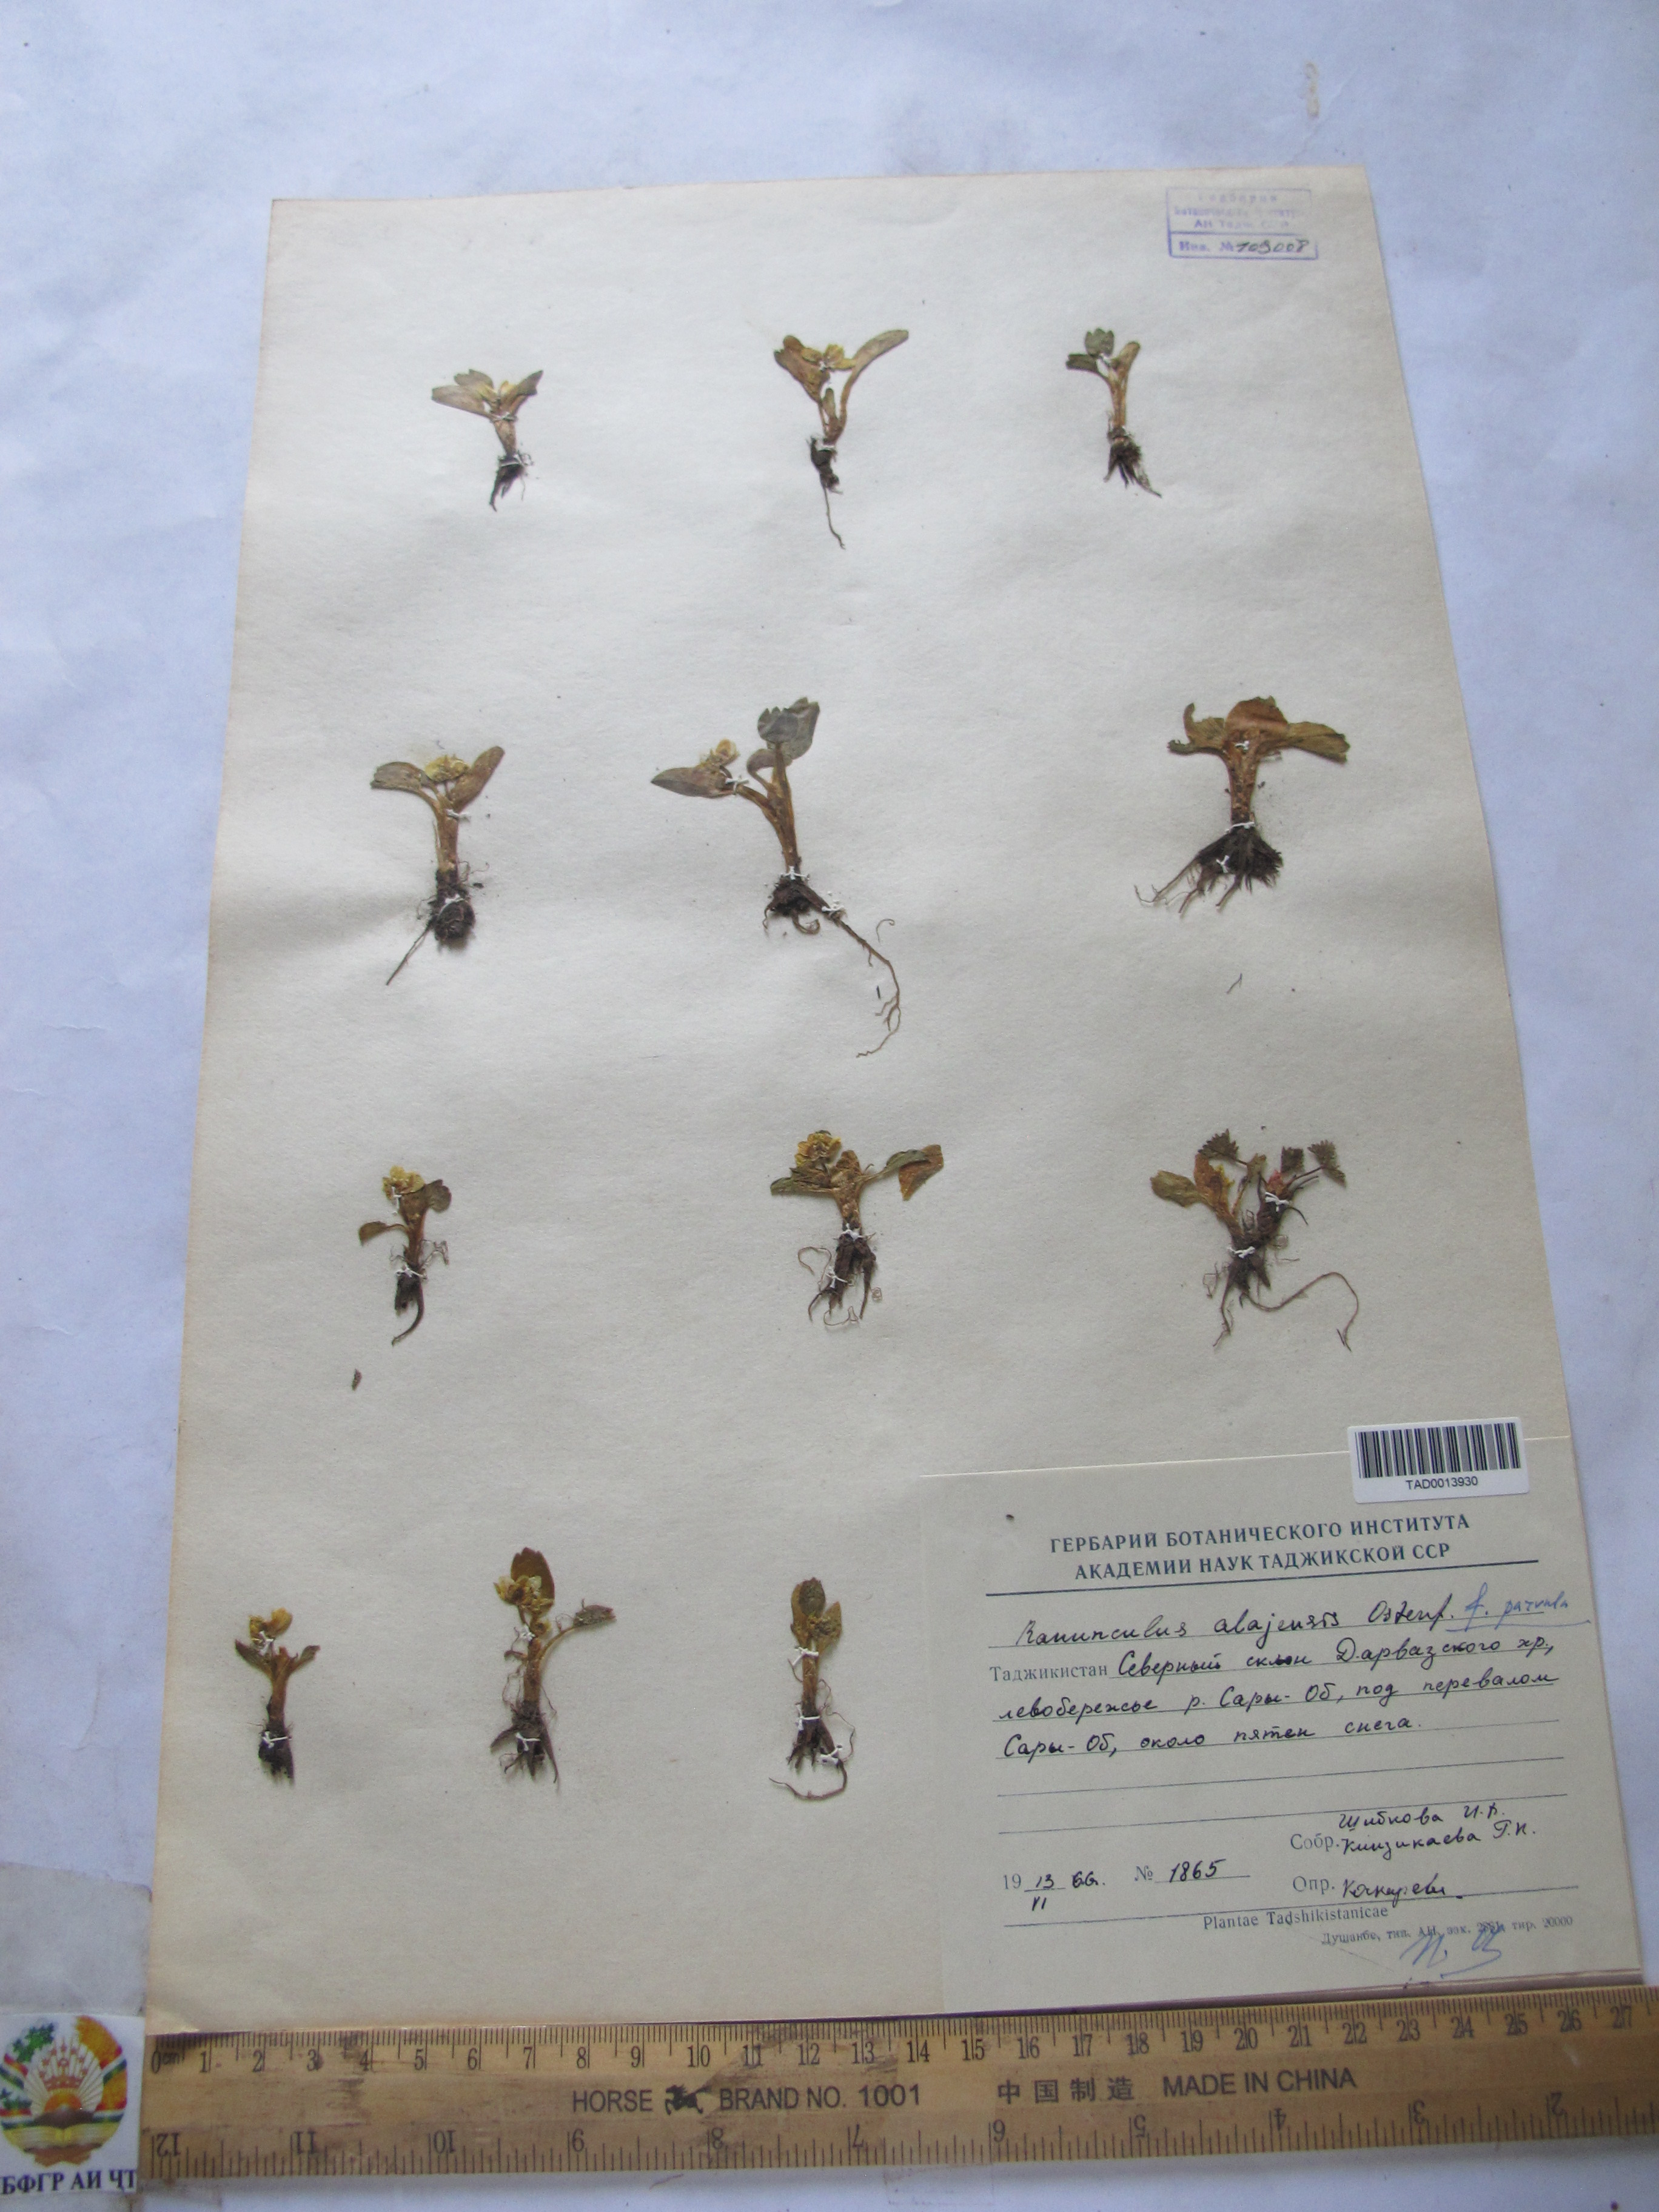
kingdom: Plantae
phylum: Tracheophyta
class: Magnoliopsida
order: Ranunculales
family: Ranunculaceae
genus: Ranunculus
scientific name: Ranunculus alaiensis
